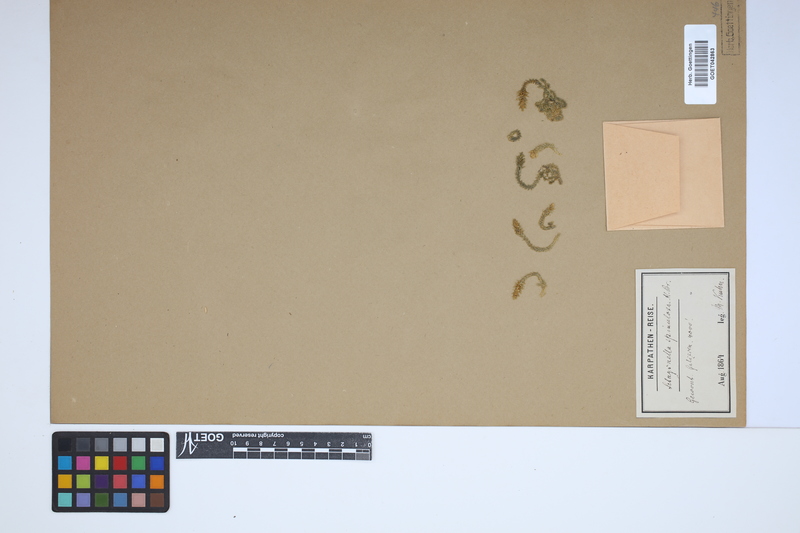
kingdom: Plantae
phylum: Tracheophyta
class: Lycopodiopsida
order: Selaginellales
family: Selaginellaceae
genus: Selaginella
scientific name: Selaginella selaginoides
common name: Prickly mountain-moss
